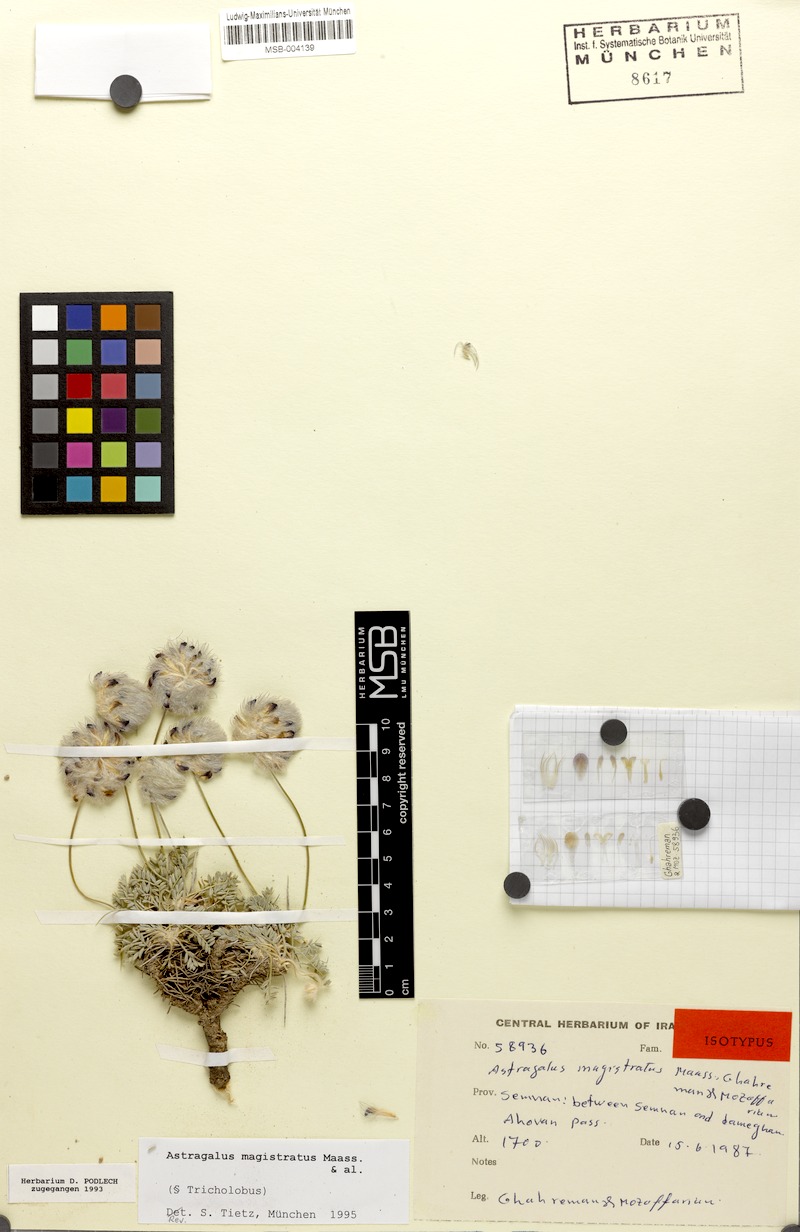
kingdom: Plantae
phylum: Tracheophyta
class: Magnoliopsida
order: Fabales
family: Fabaceae
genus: Astragalus
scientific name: Astragalus magistratus
